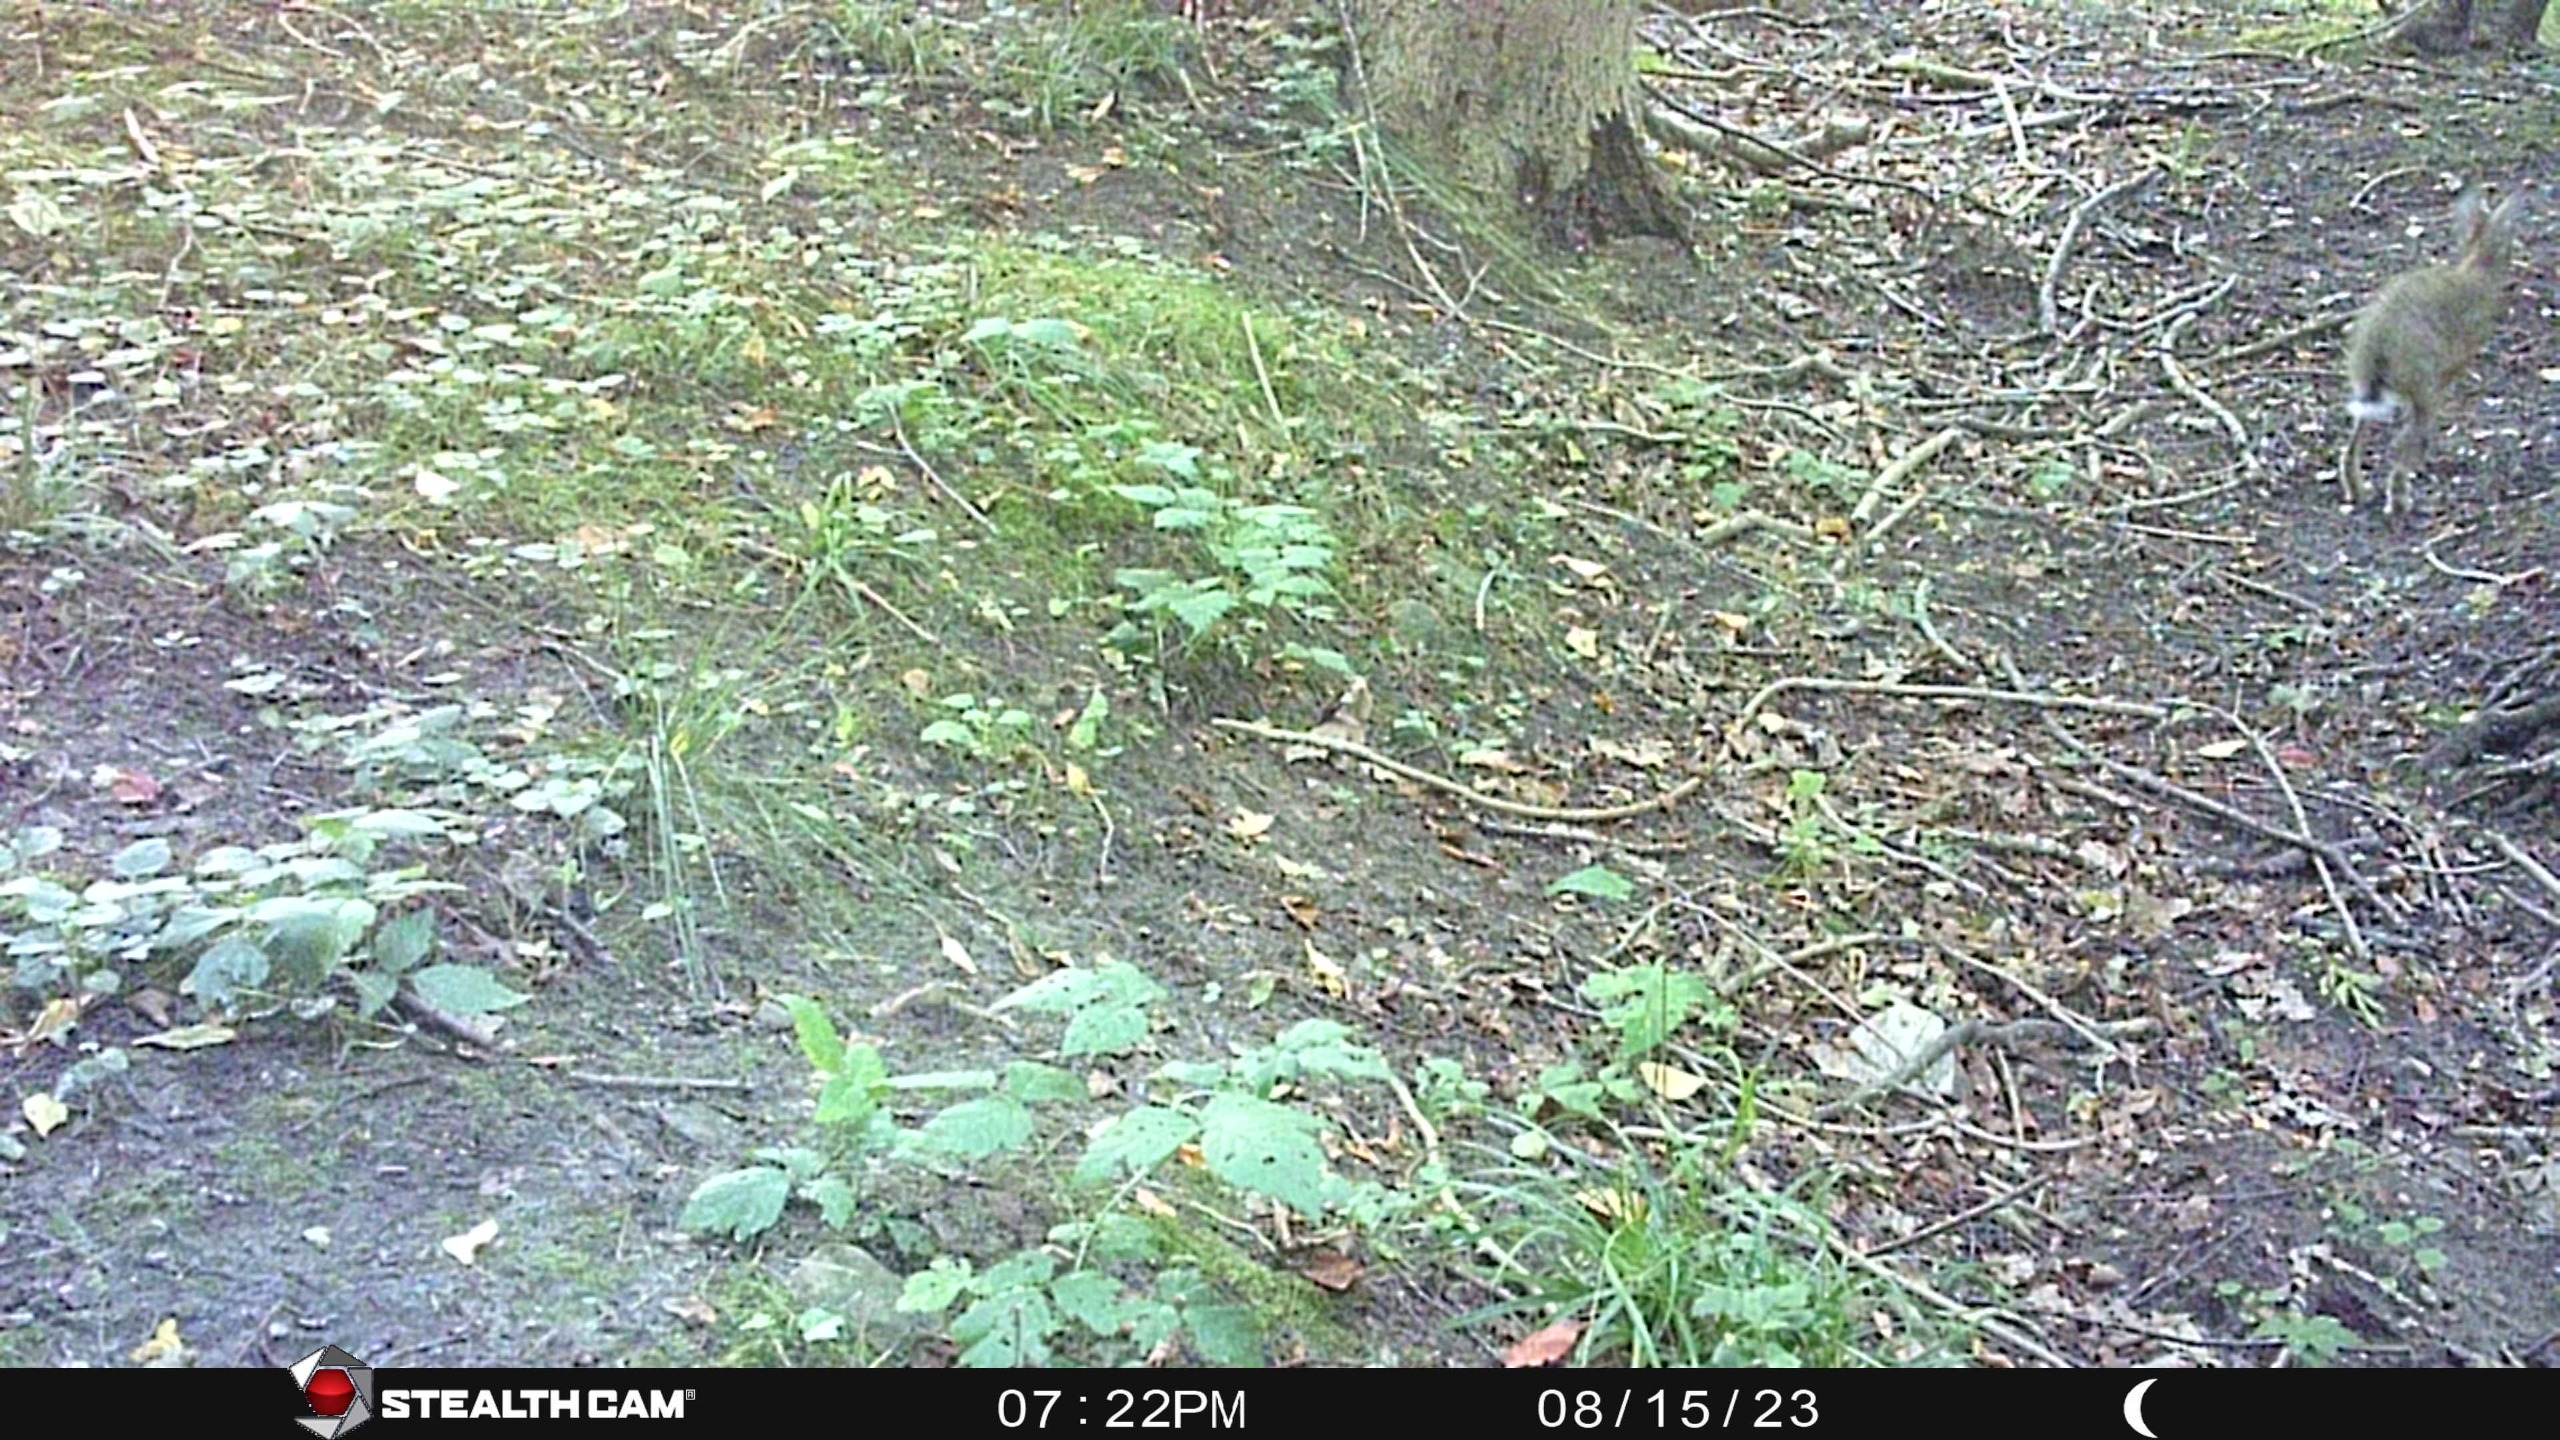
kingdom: Animalia
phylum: Chordata
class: Mammalia
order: Lagomorpha
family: Leporidae
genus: Lepus
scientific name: Lepus europaeus
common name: Hare
